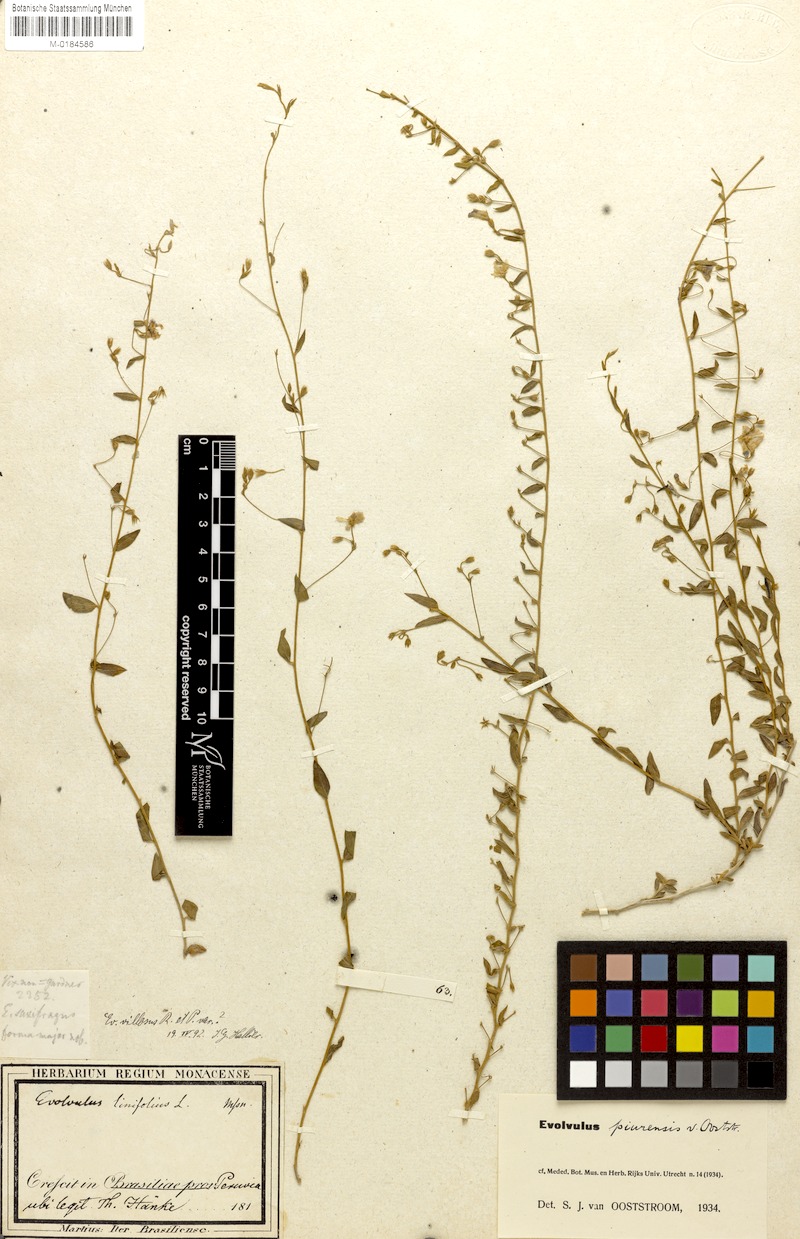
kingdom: Plantae
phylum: Tracheophyta
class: Magnoliopsida
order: Solanales
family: Convolvulaceae
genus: Evolvulus
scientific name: Evolvulus piurensis
